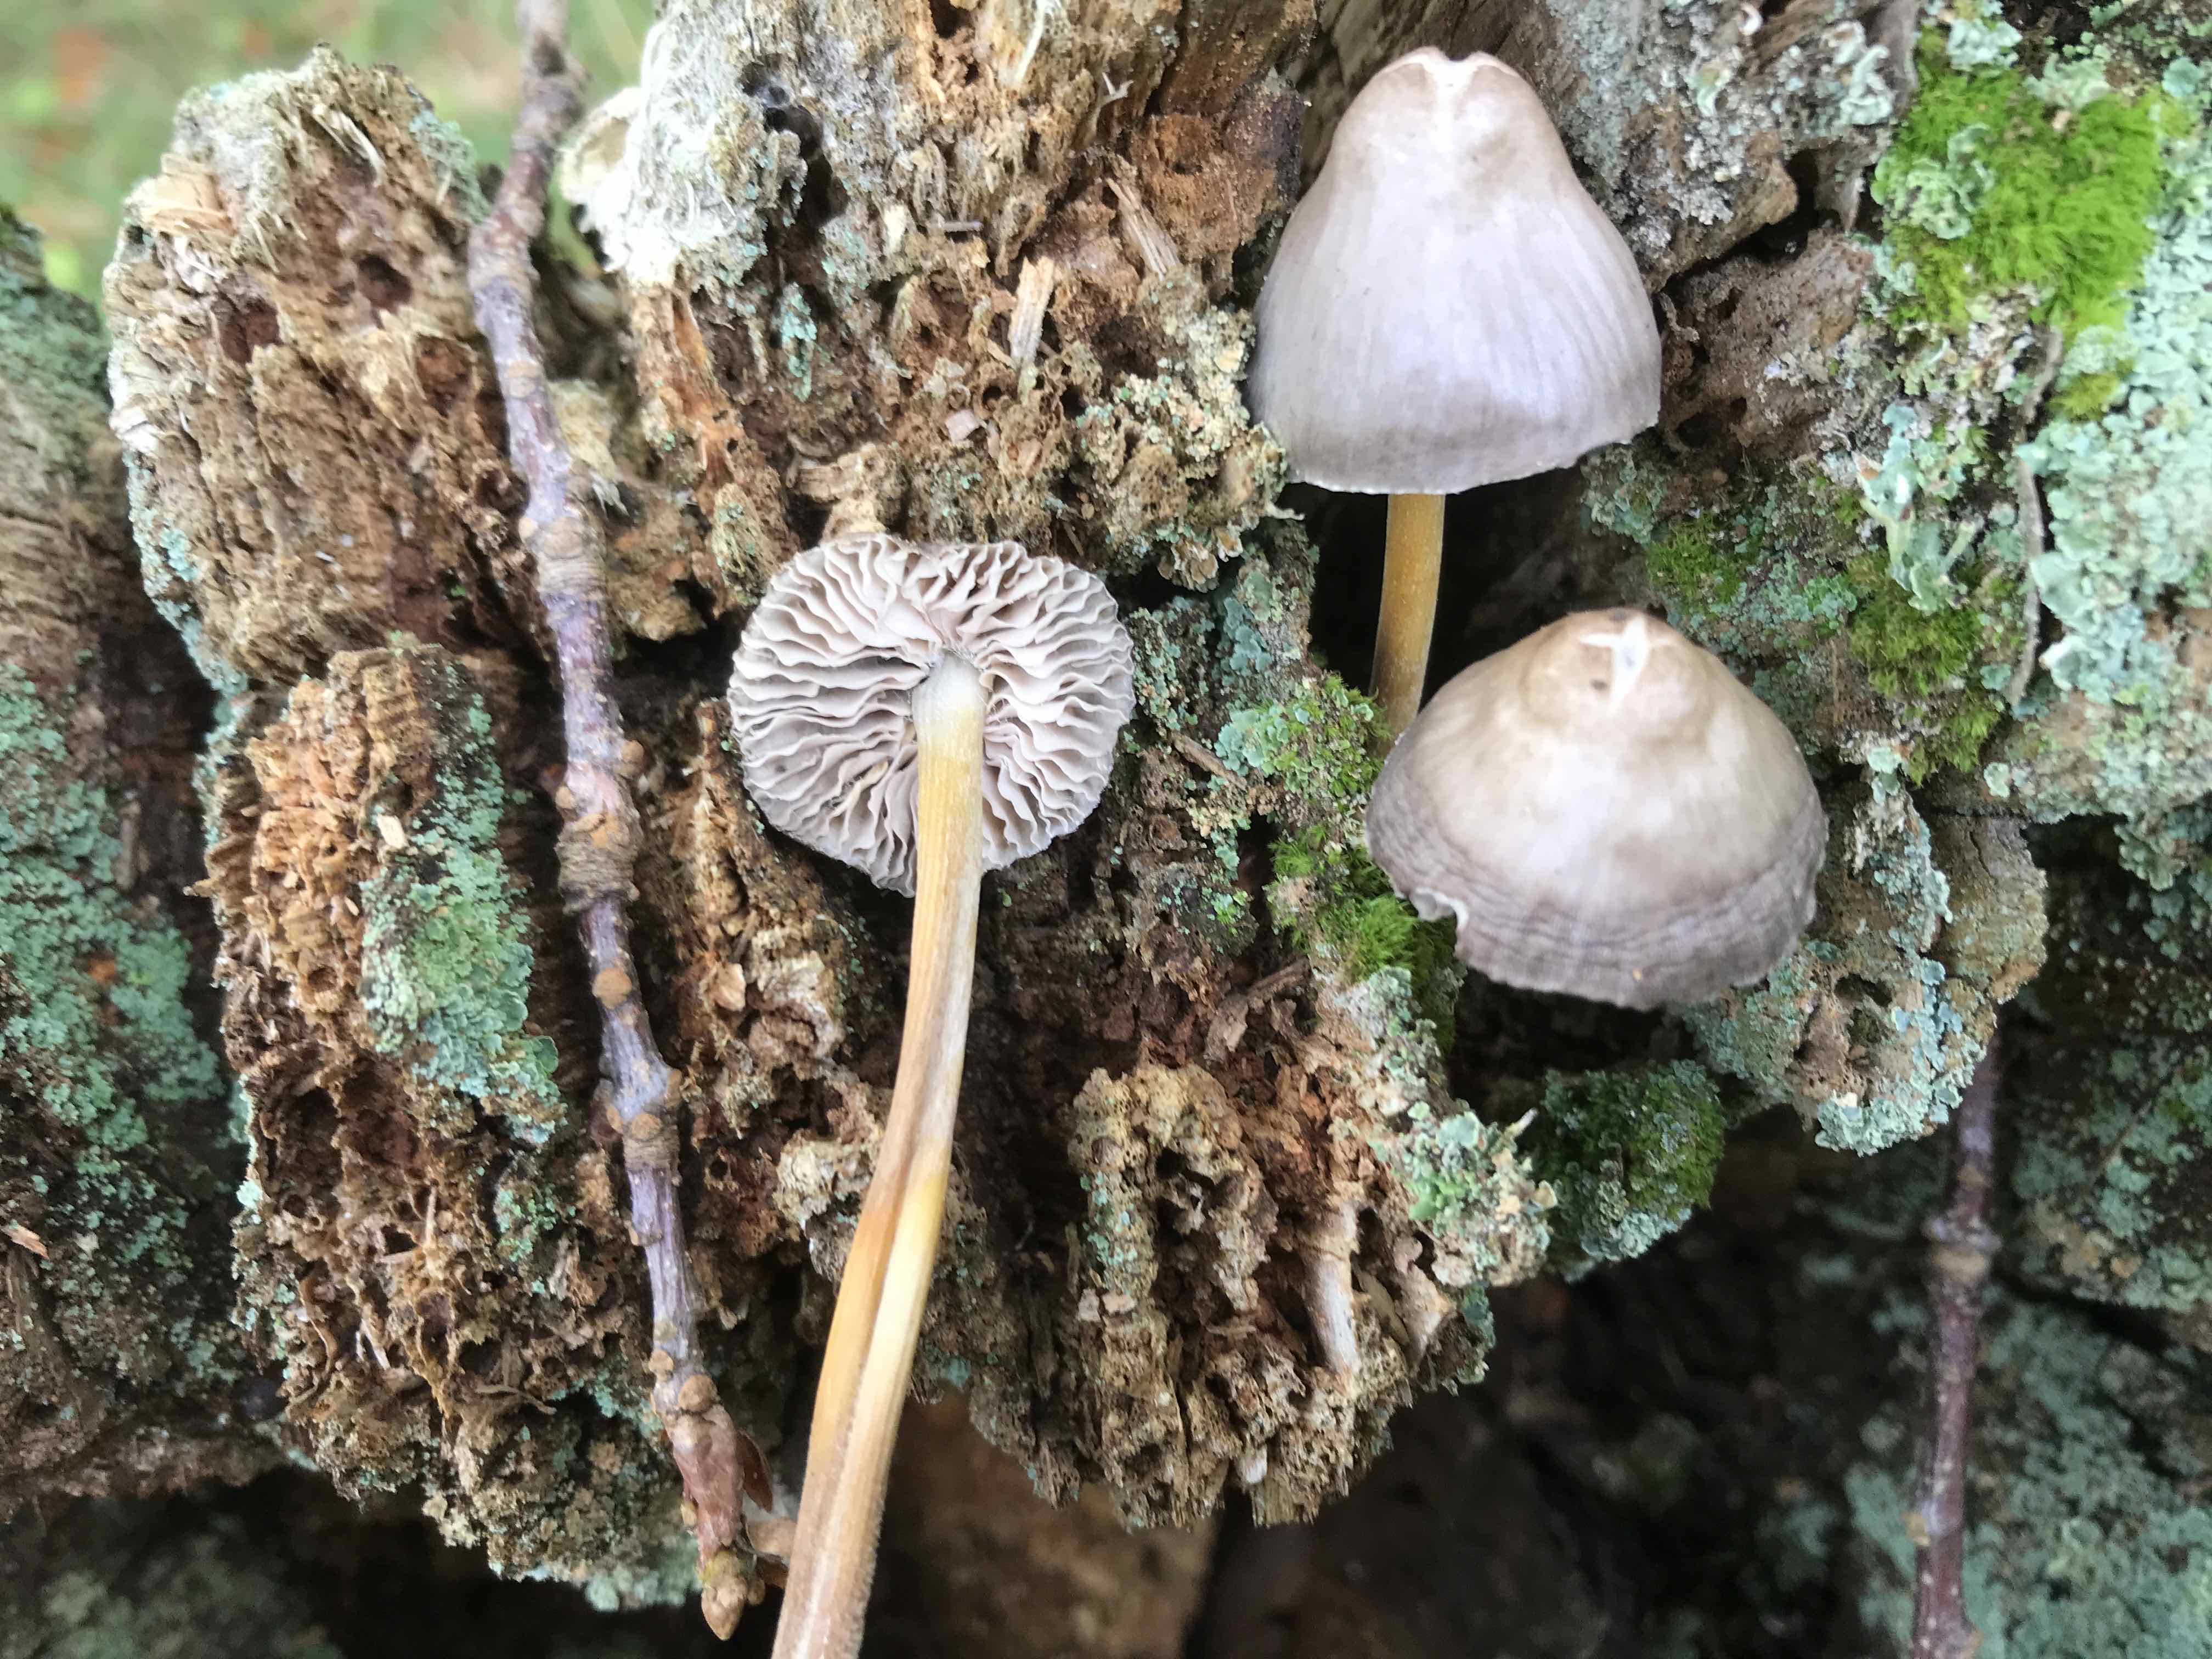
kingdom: Fungi
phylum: Basidiomycota
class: Agaricomycetes
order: Agaricales
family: Mycenaceae
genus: Mycena
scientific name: Mycena inclinata
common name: nikkende huesvamp
